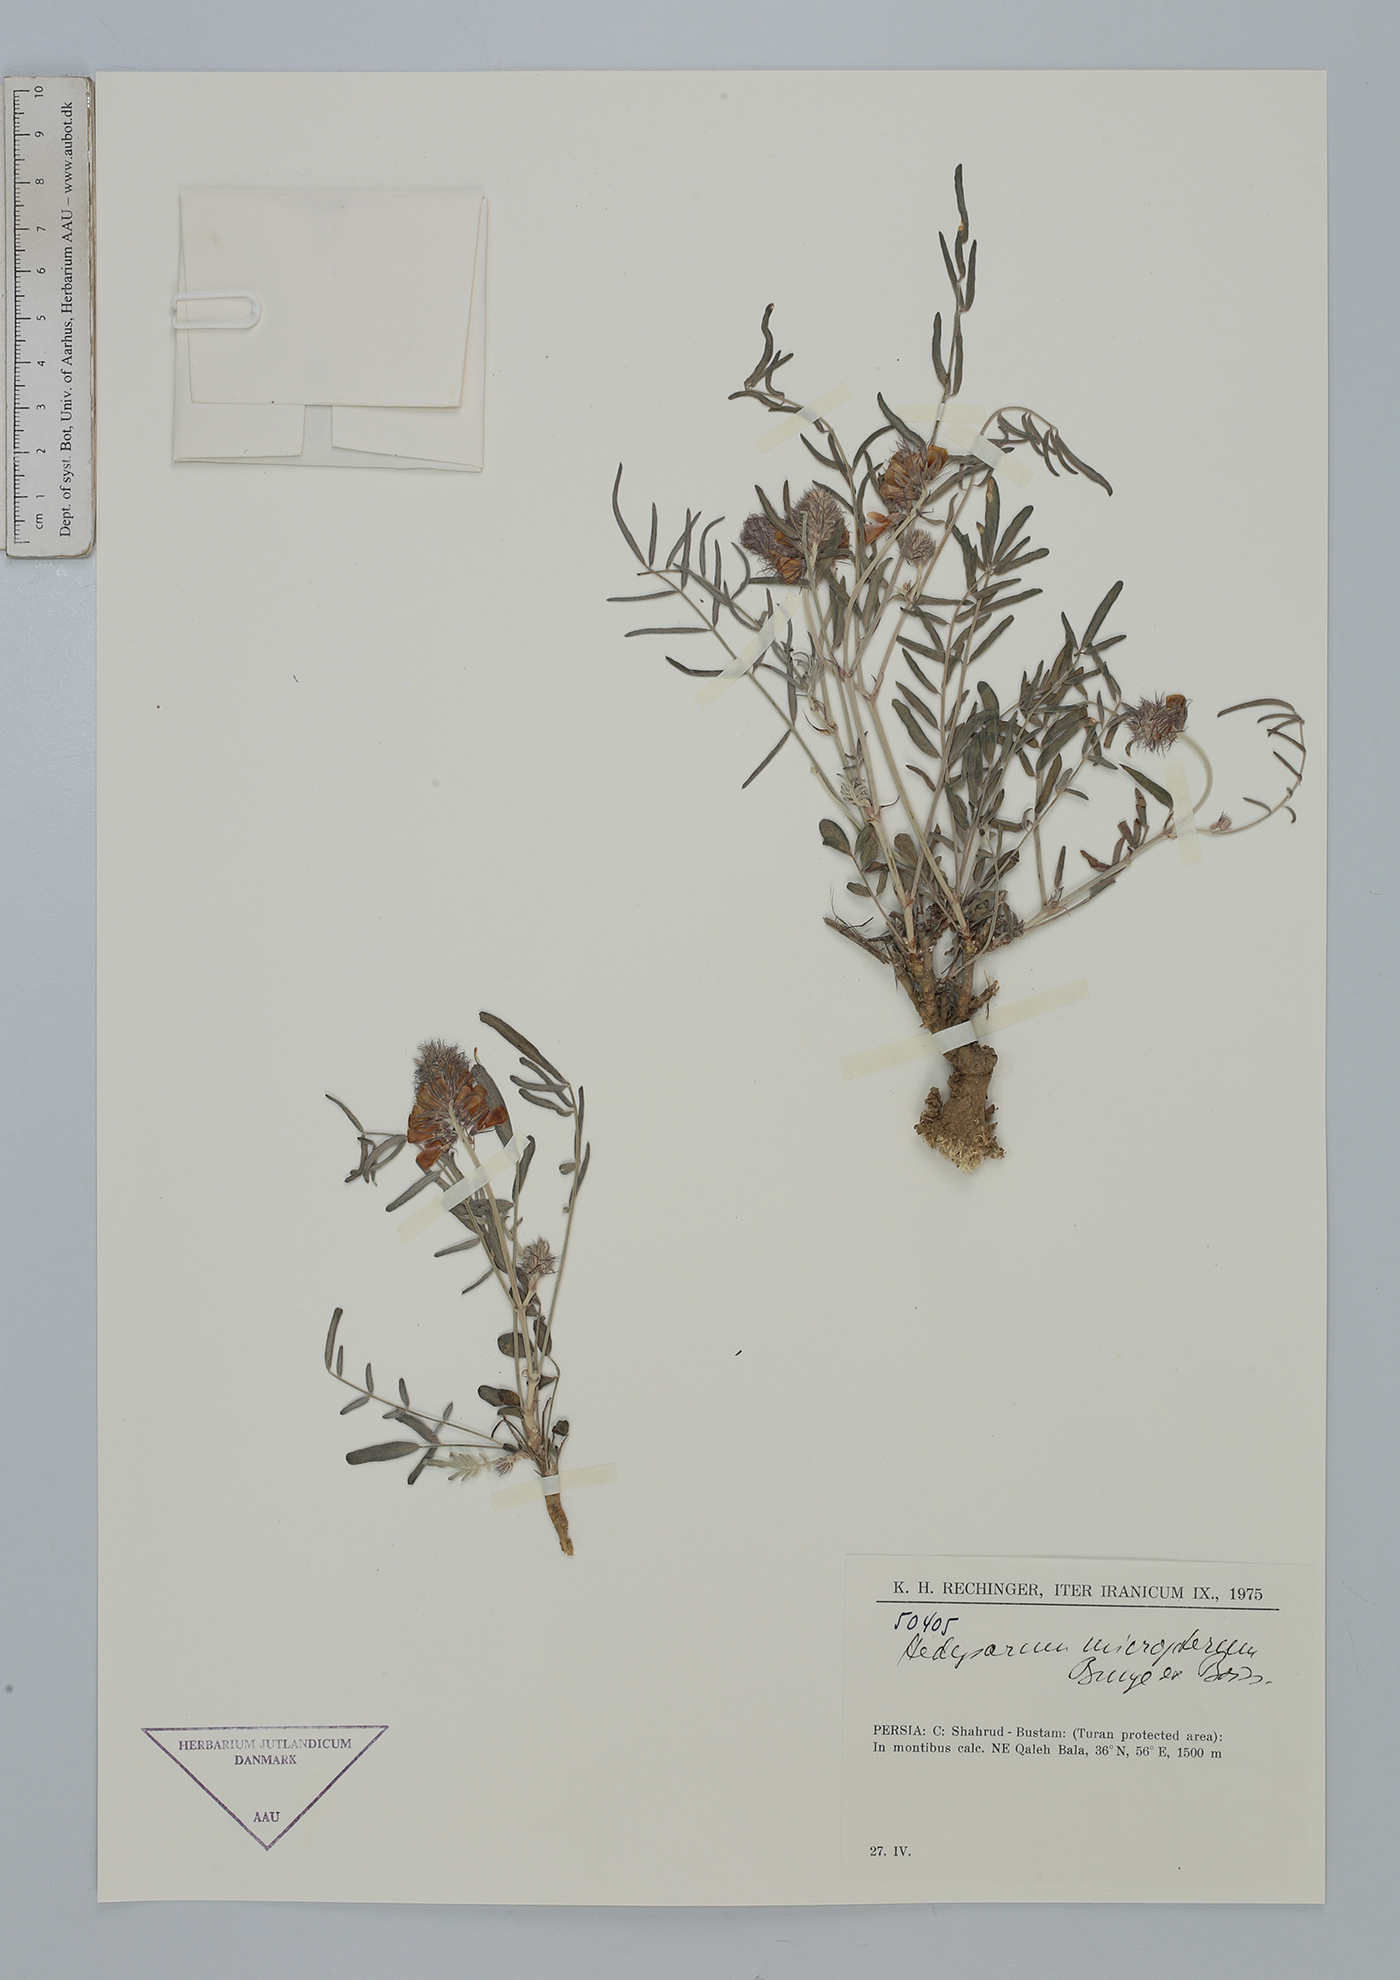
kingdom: Plantae
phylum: Tracheophyta
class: Magnoliopsida
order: Fabales
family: Fabaceae
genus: Hedysarum
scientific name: Hedysarum micropterum
